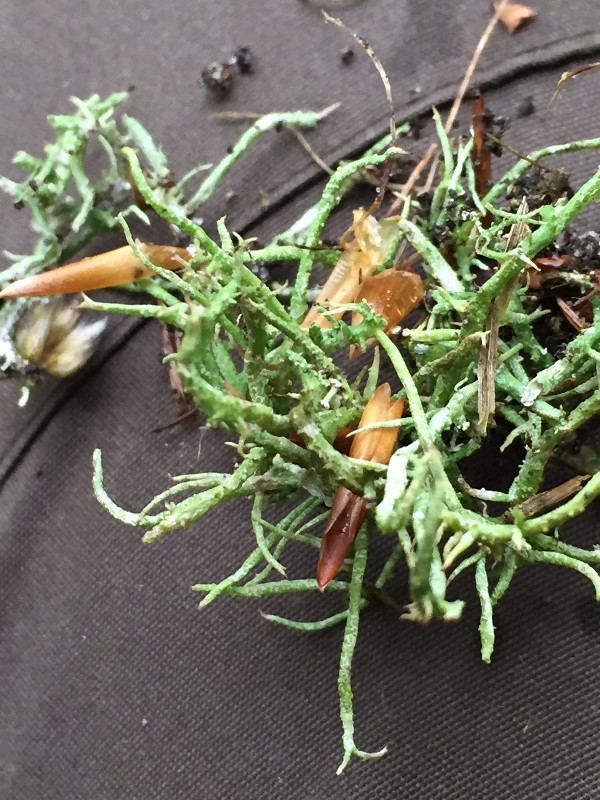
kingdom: Fungi
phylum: Ascomycota
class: Lecanoromycetes
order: Lecanorales
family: Cladoniaceae
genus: Cladonia
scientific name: Cladonia scabriuscula
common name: ru bægerlav
